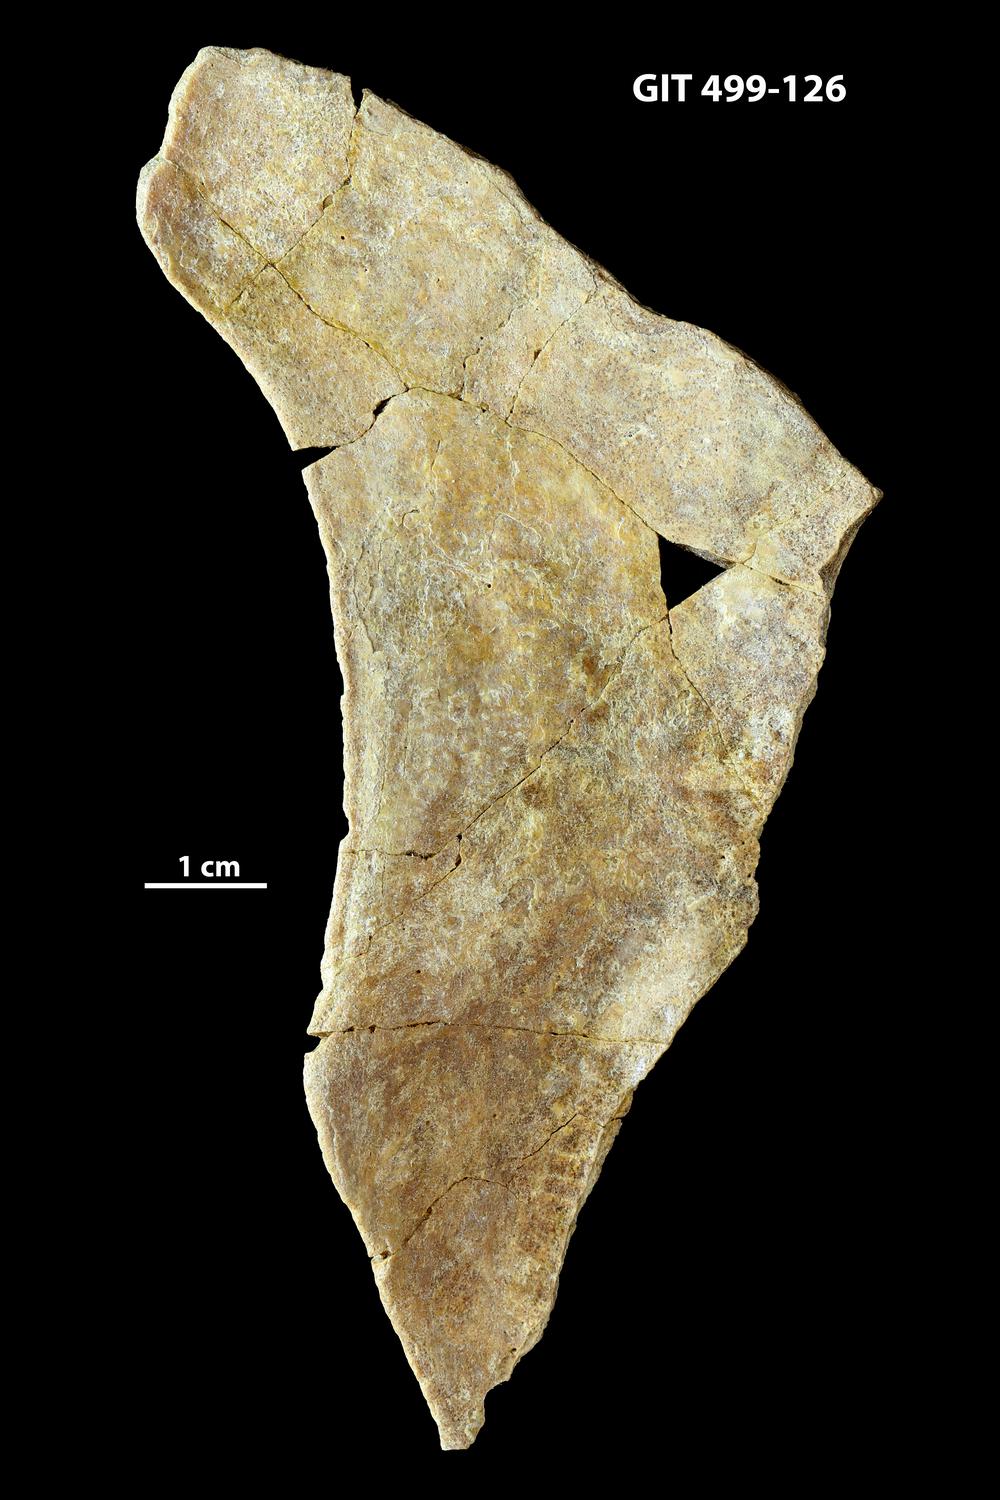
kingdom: Animalia
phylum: Chordata
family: Holoptychiidae
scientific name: Holoptychiidae
